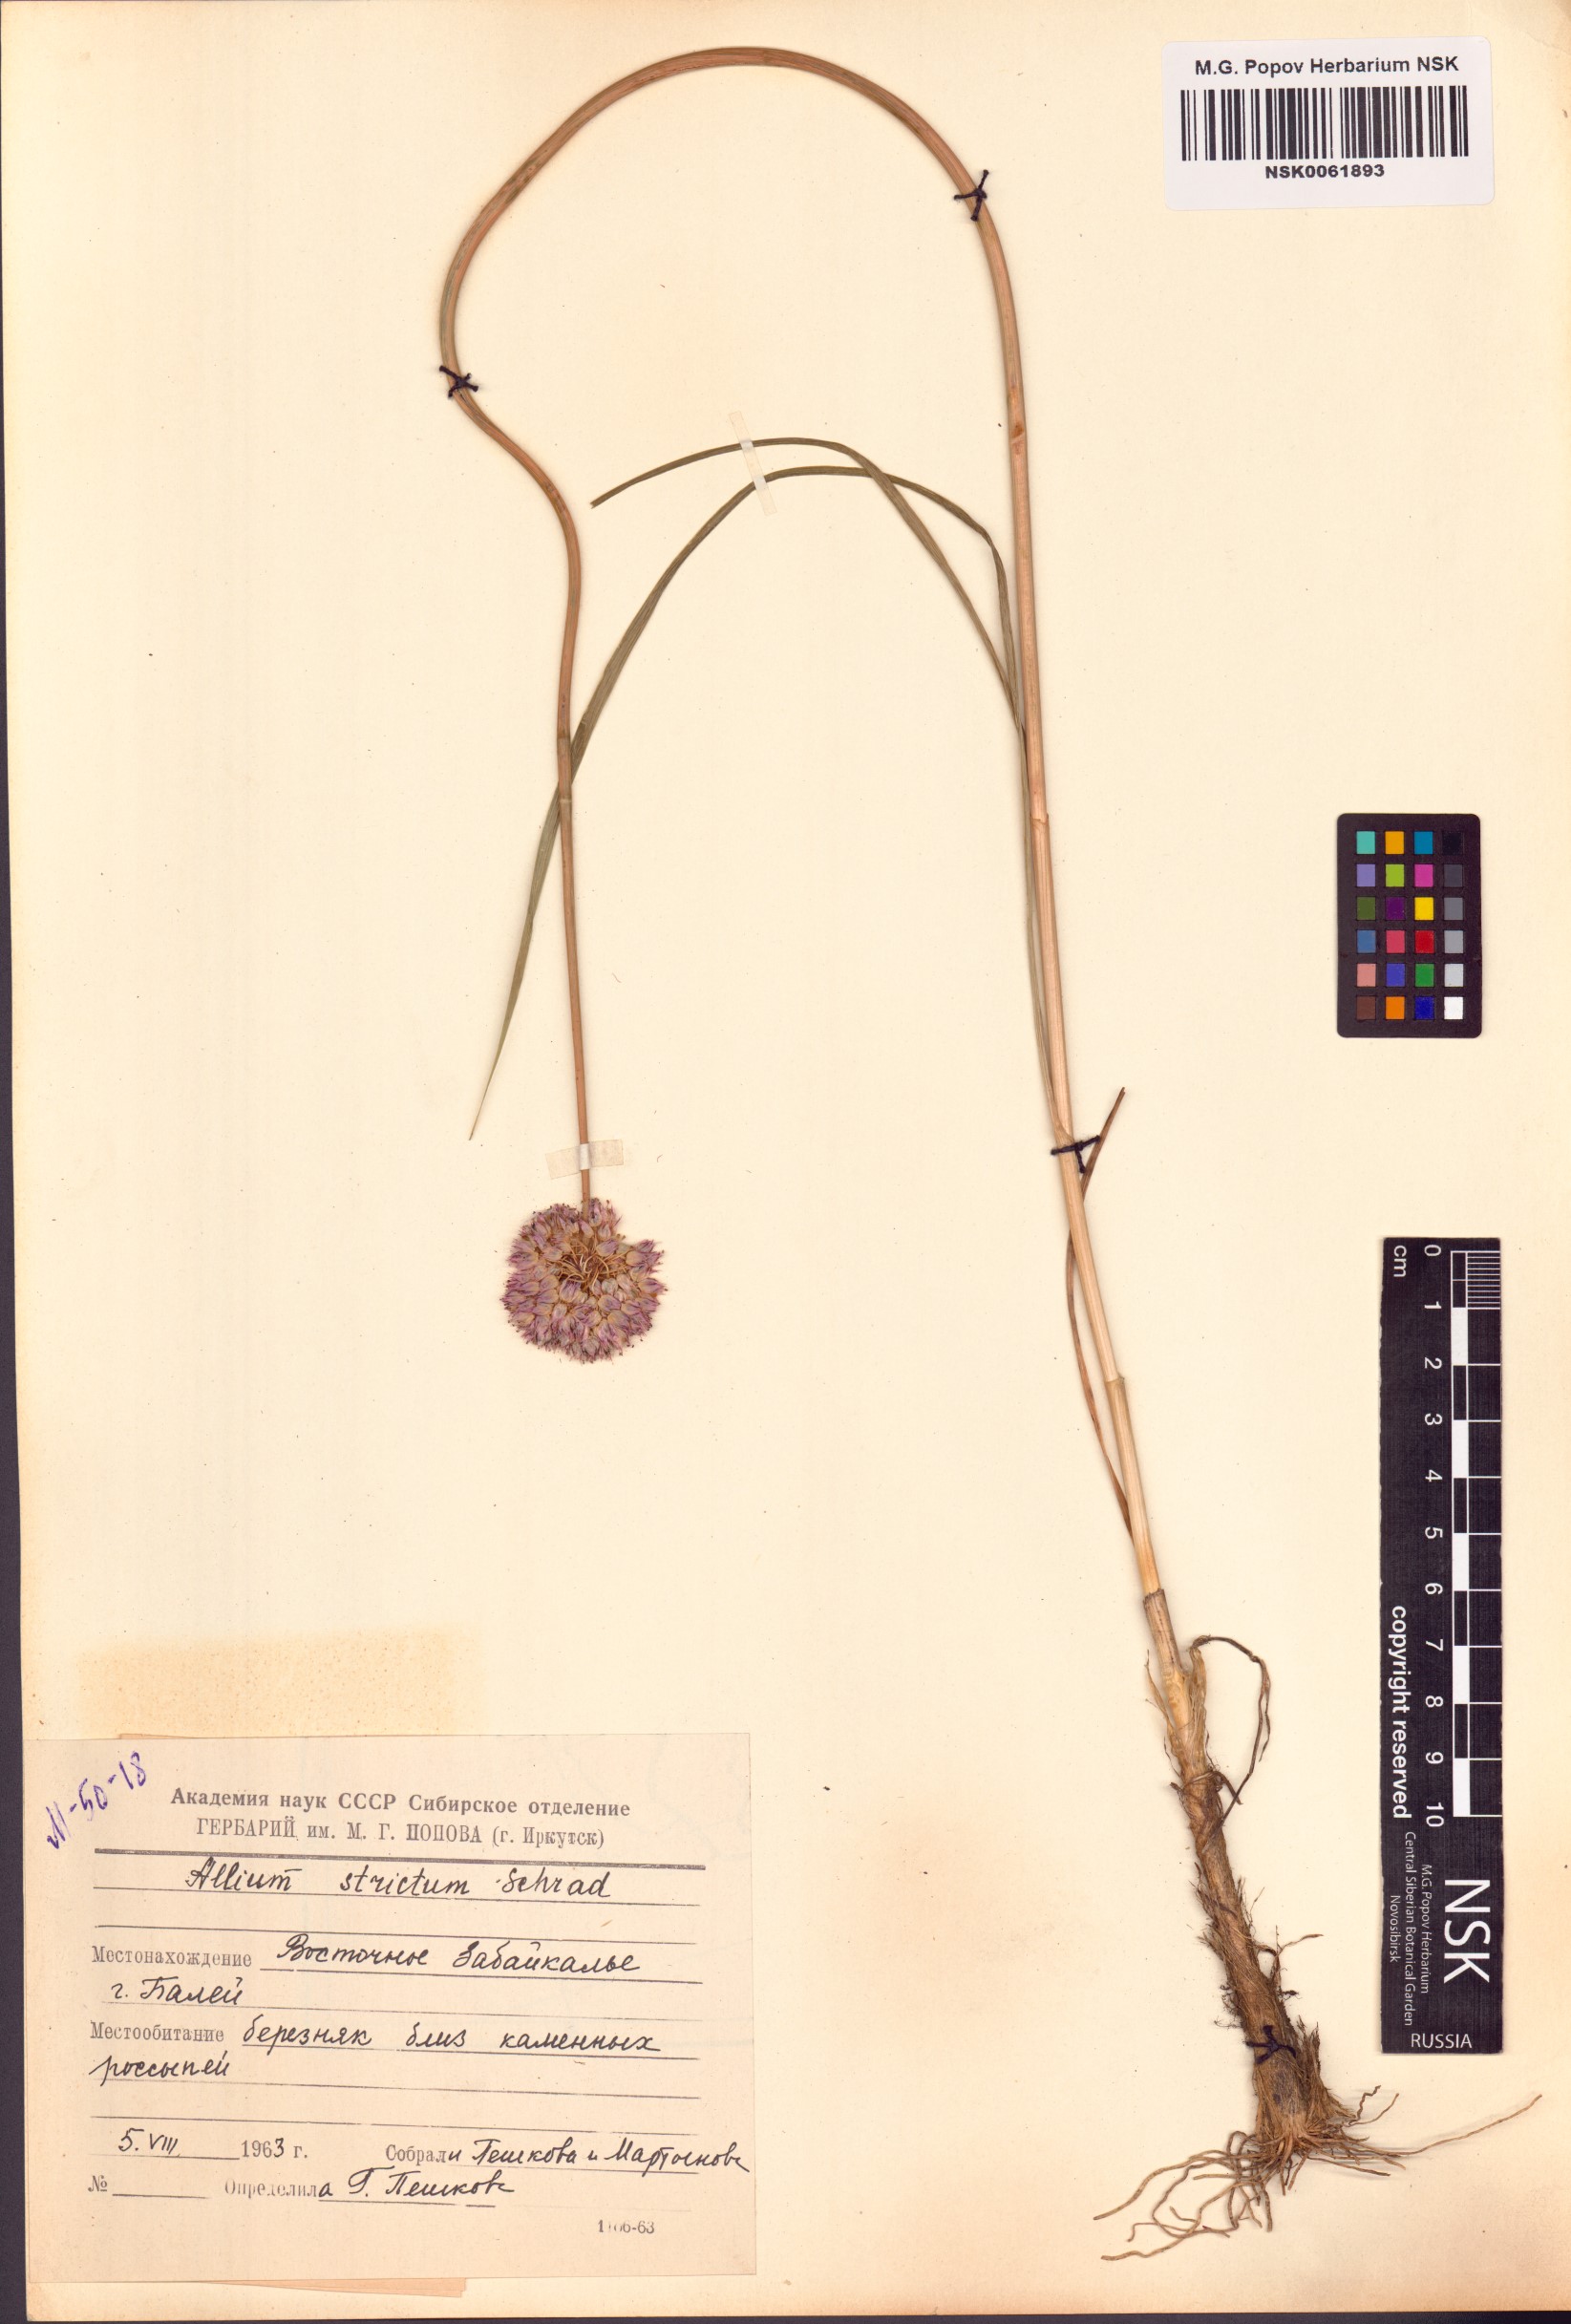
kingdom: Plantae
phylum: Tracheophyta
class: Liliopsida
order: Asparagales
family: Amaryllidaceae
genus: Allium
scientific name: Allium strictum
